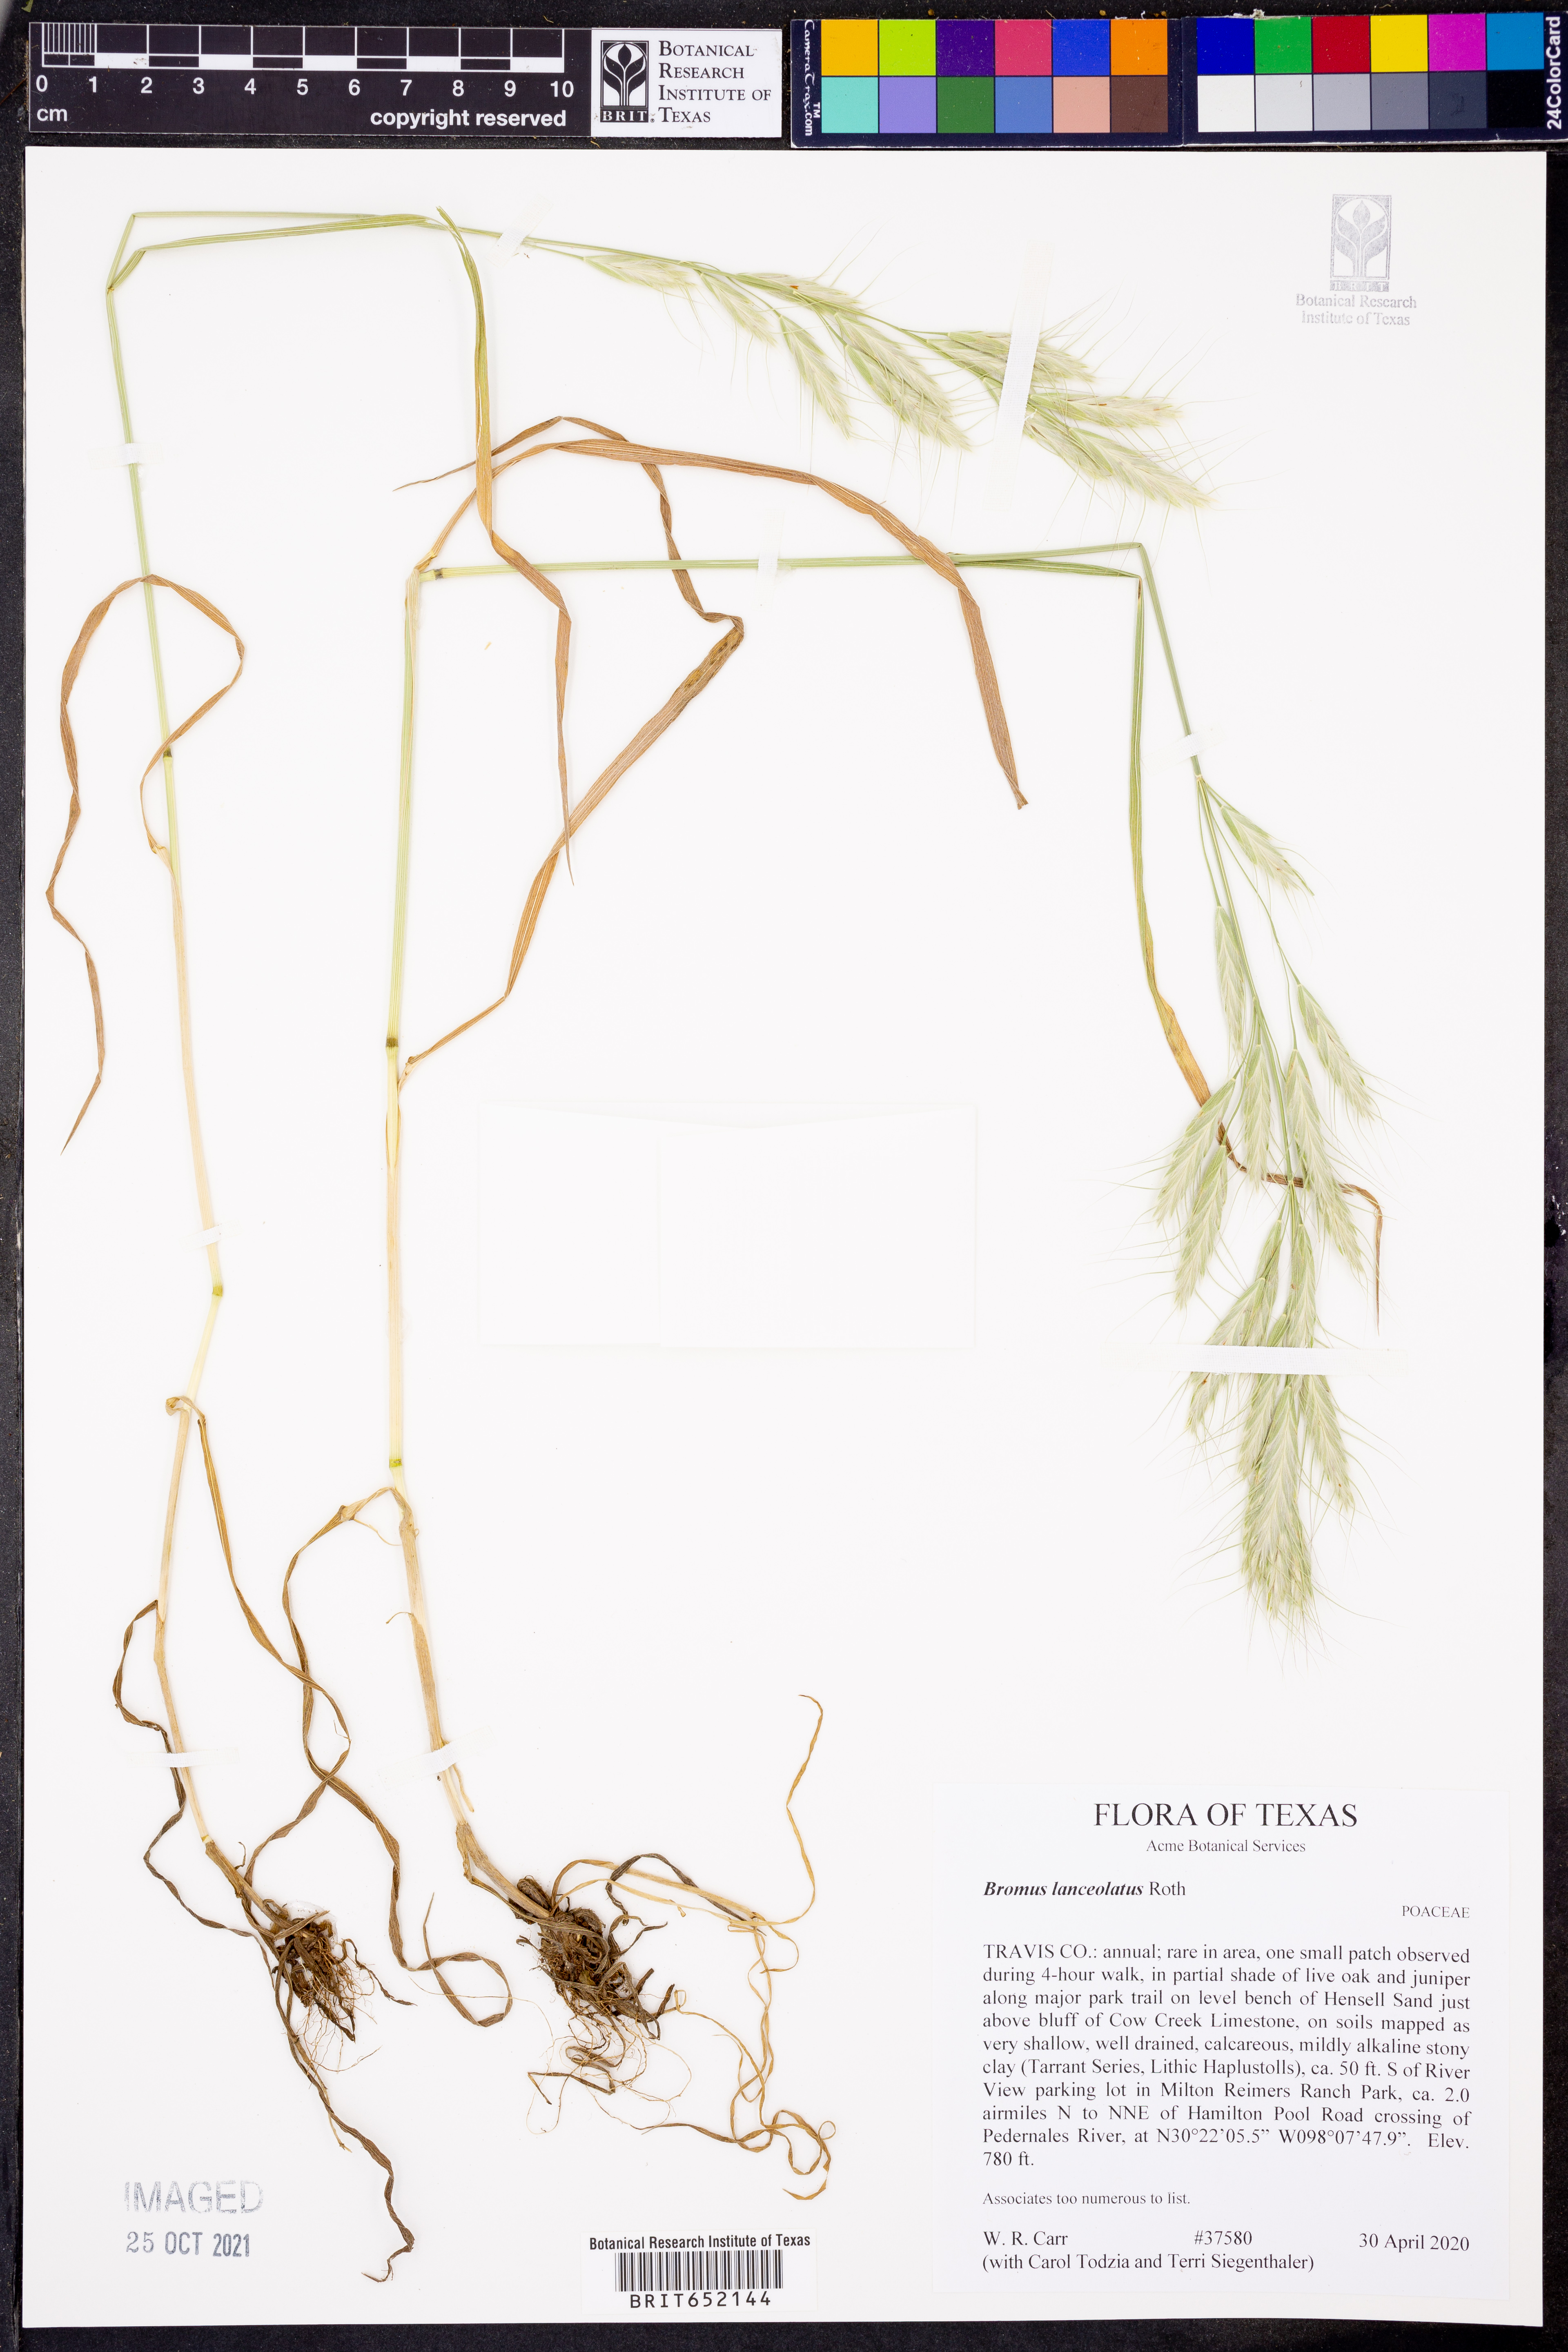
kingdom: Plantae
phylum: Tracheophyta
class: Liliopsida
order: Poales
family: Poaceae
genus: Bromus
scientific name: Bromus lanceolatus
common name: Mediterranean brome
